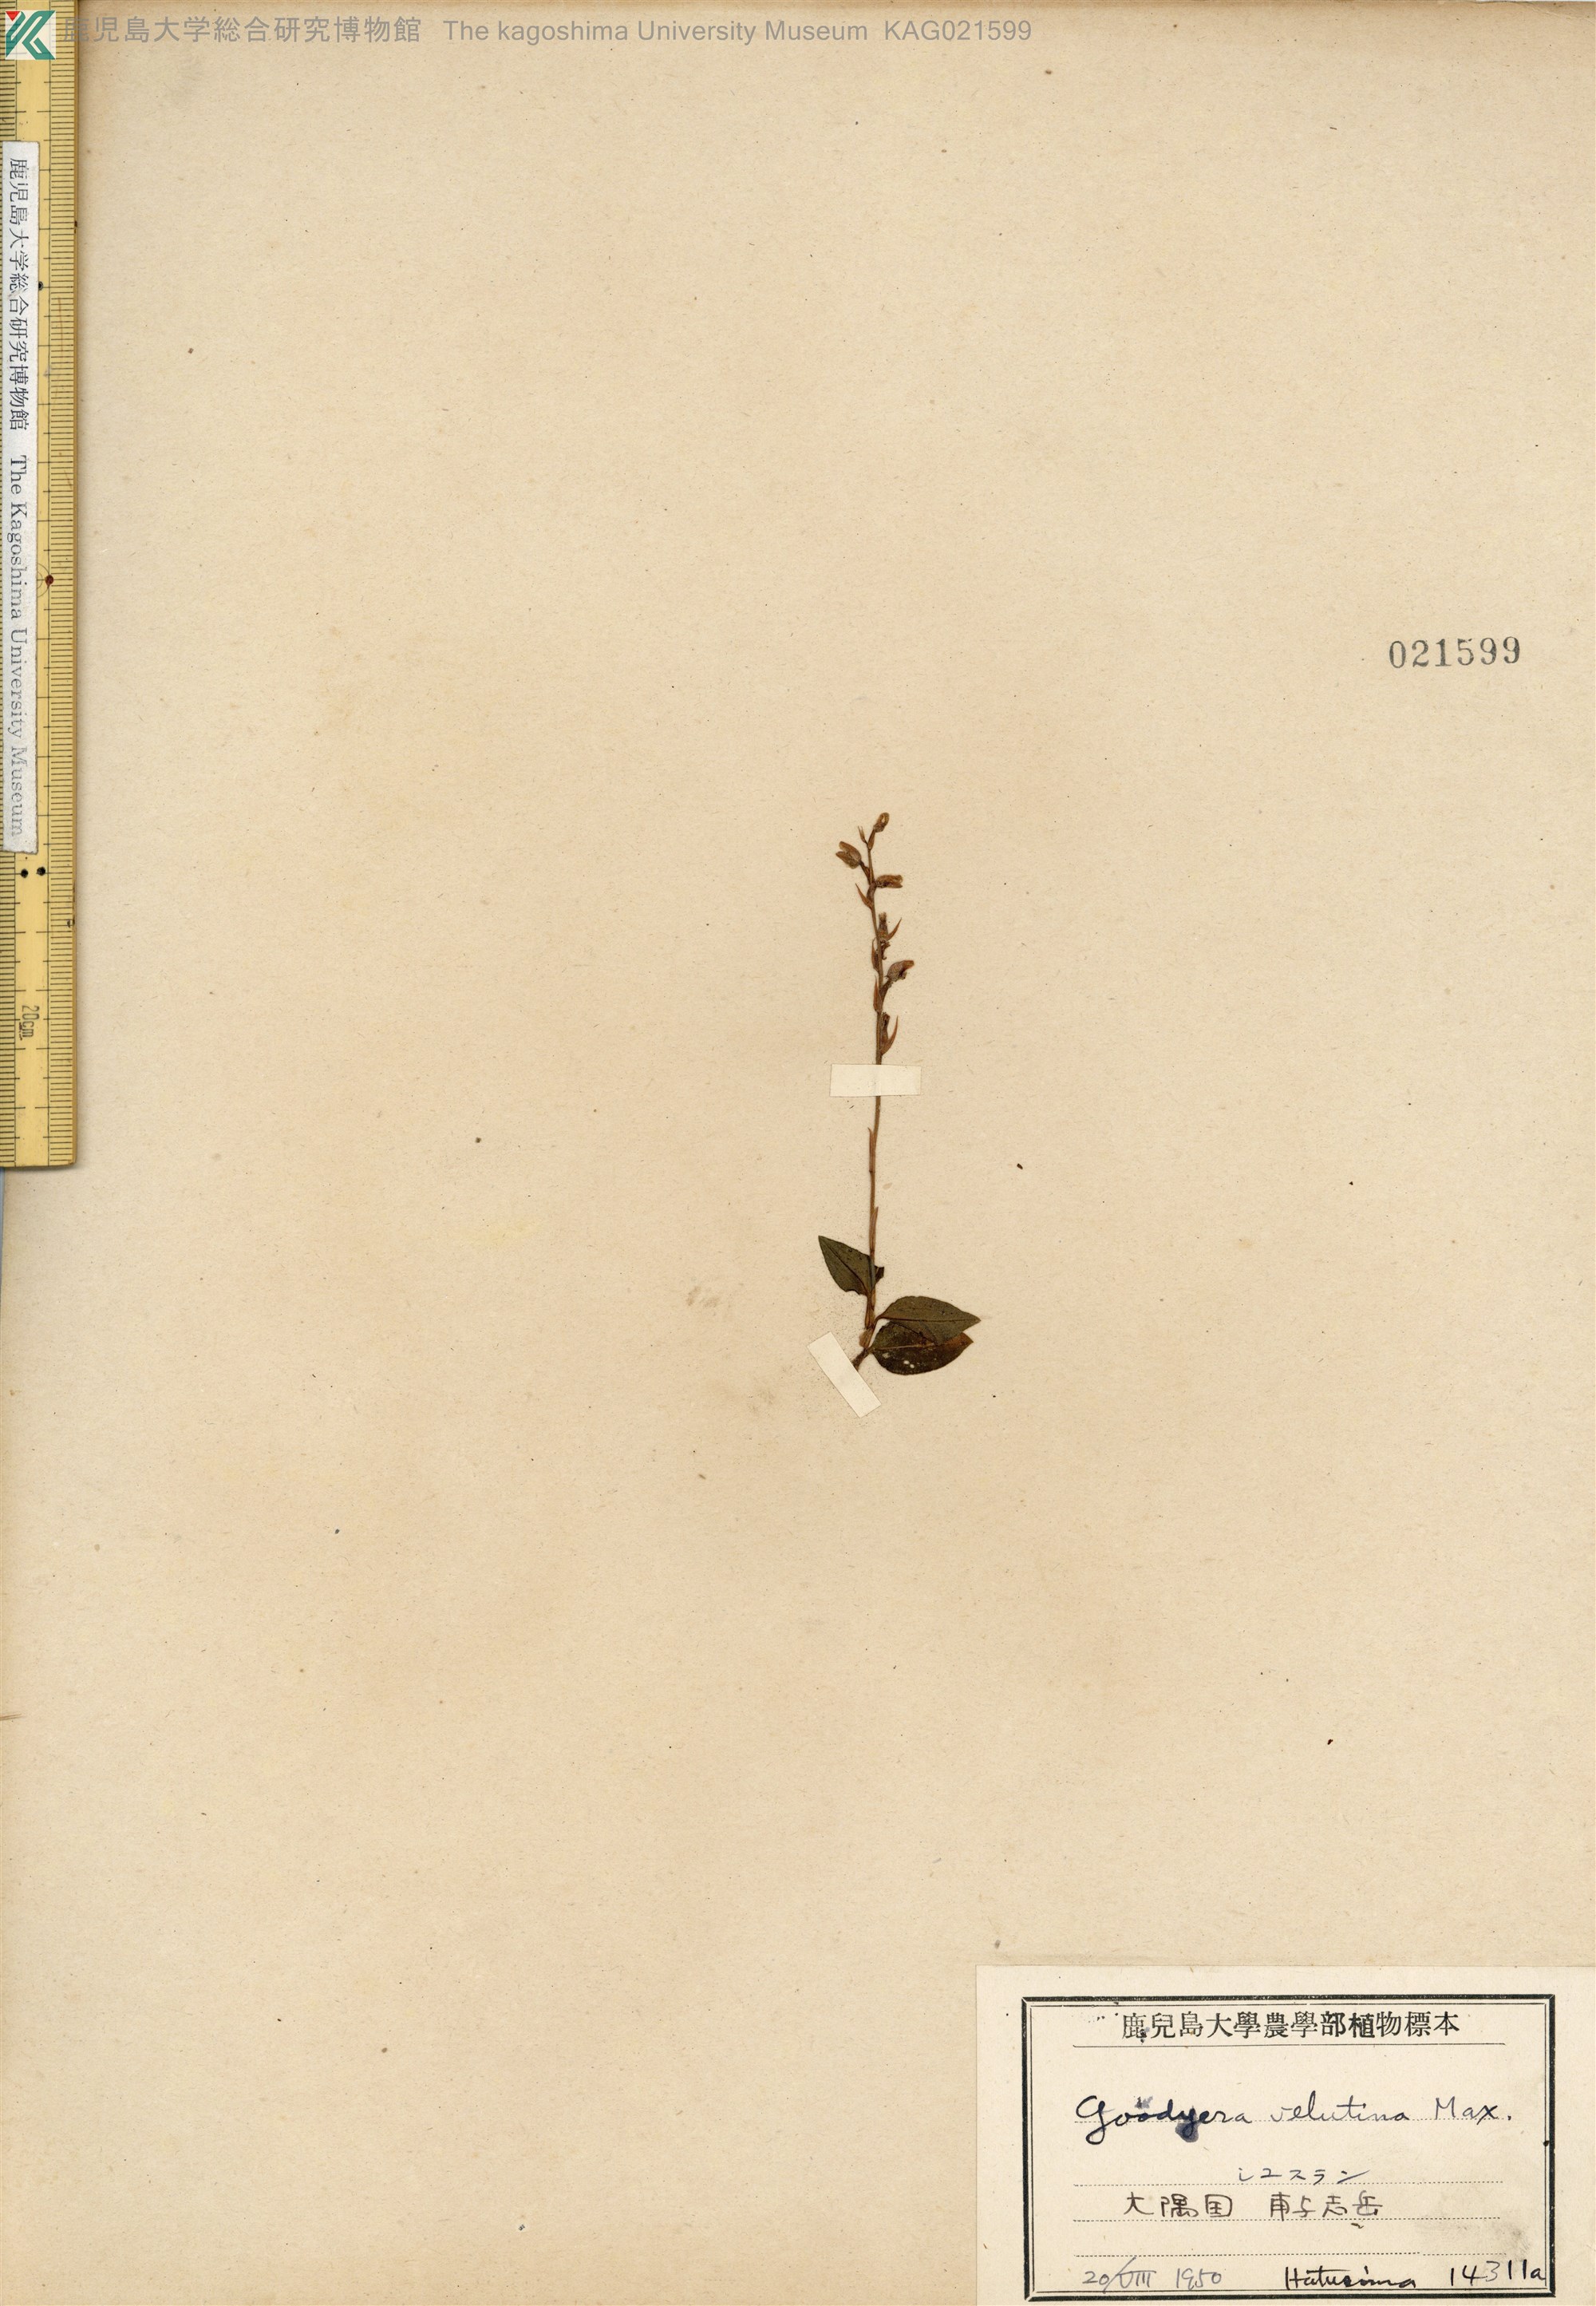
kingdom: Plantae
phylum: Tracheophyta
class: Liliopsida
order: Asparagales
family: Orchidaceae
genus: Goodyera
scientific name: Goodyera velutina
